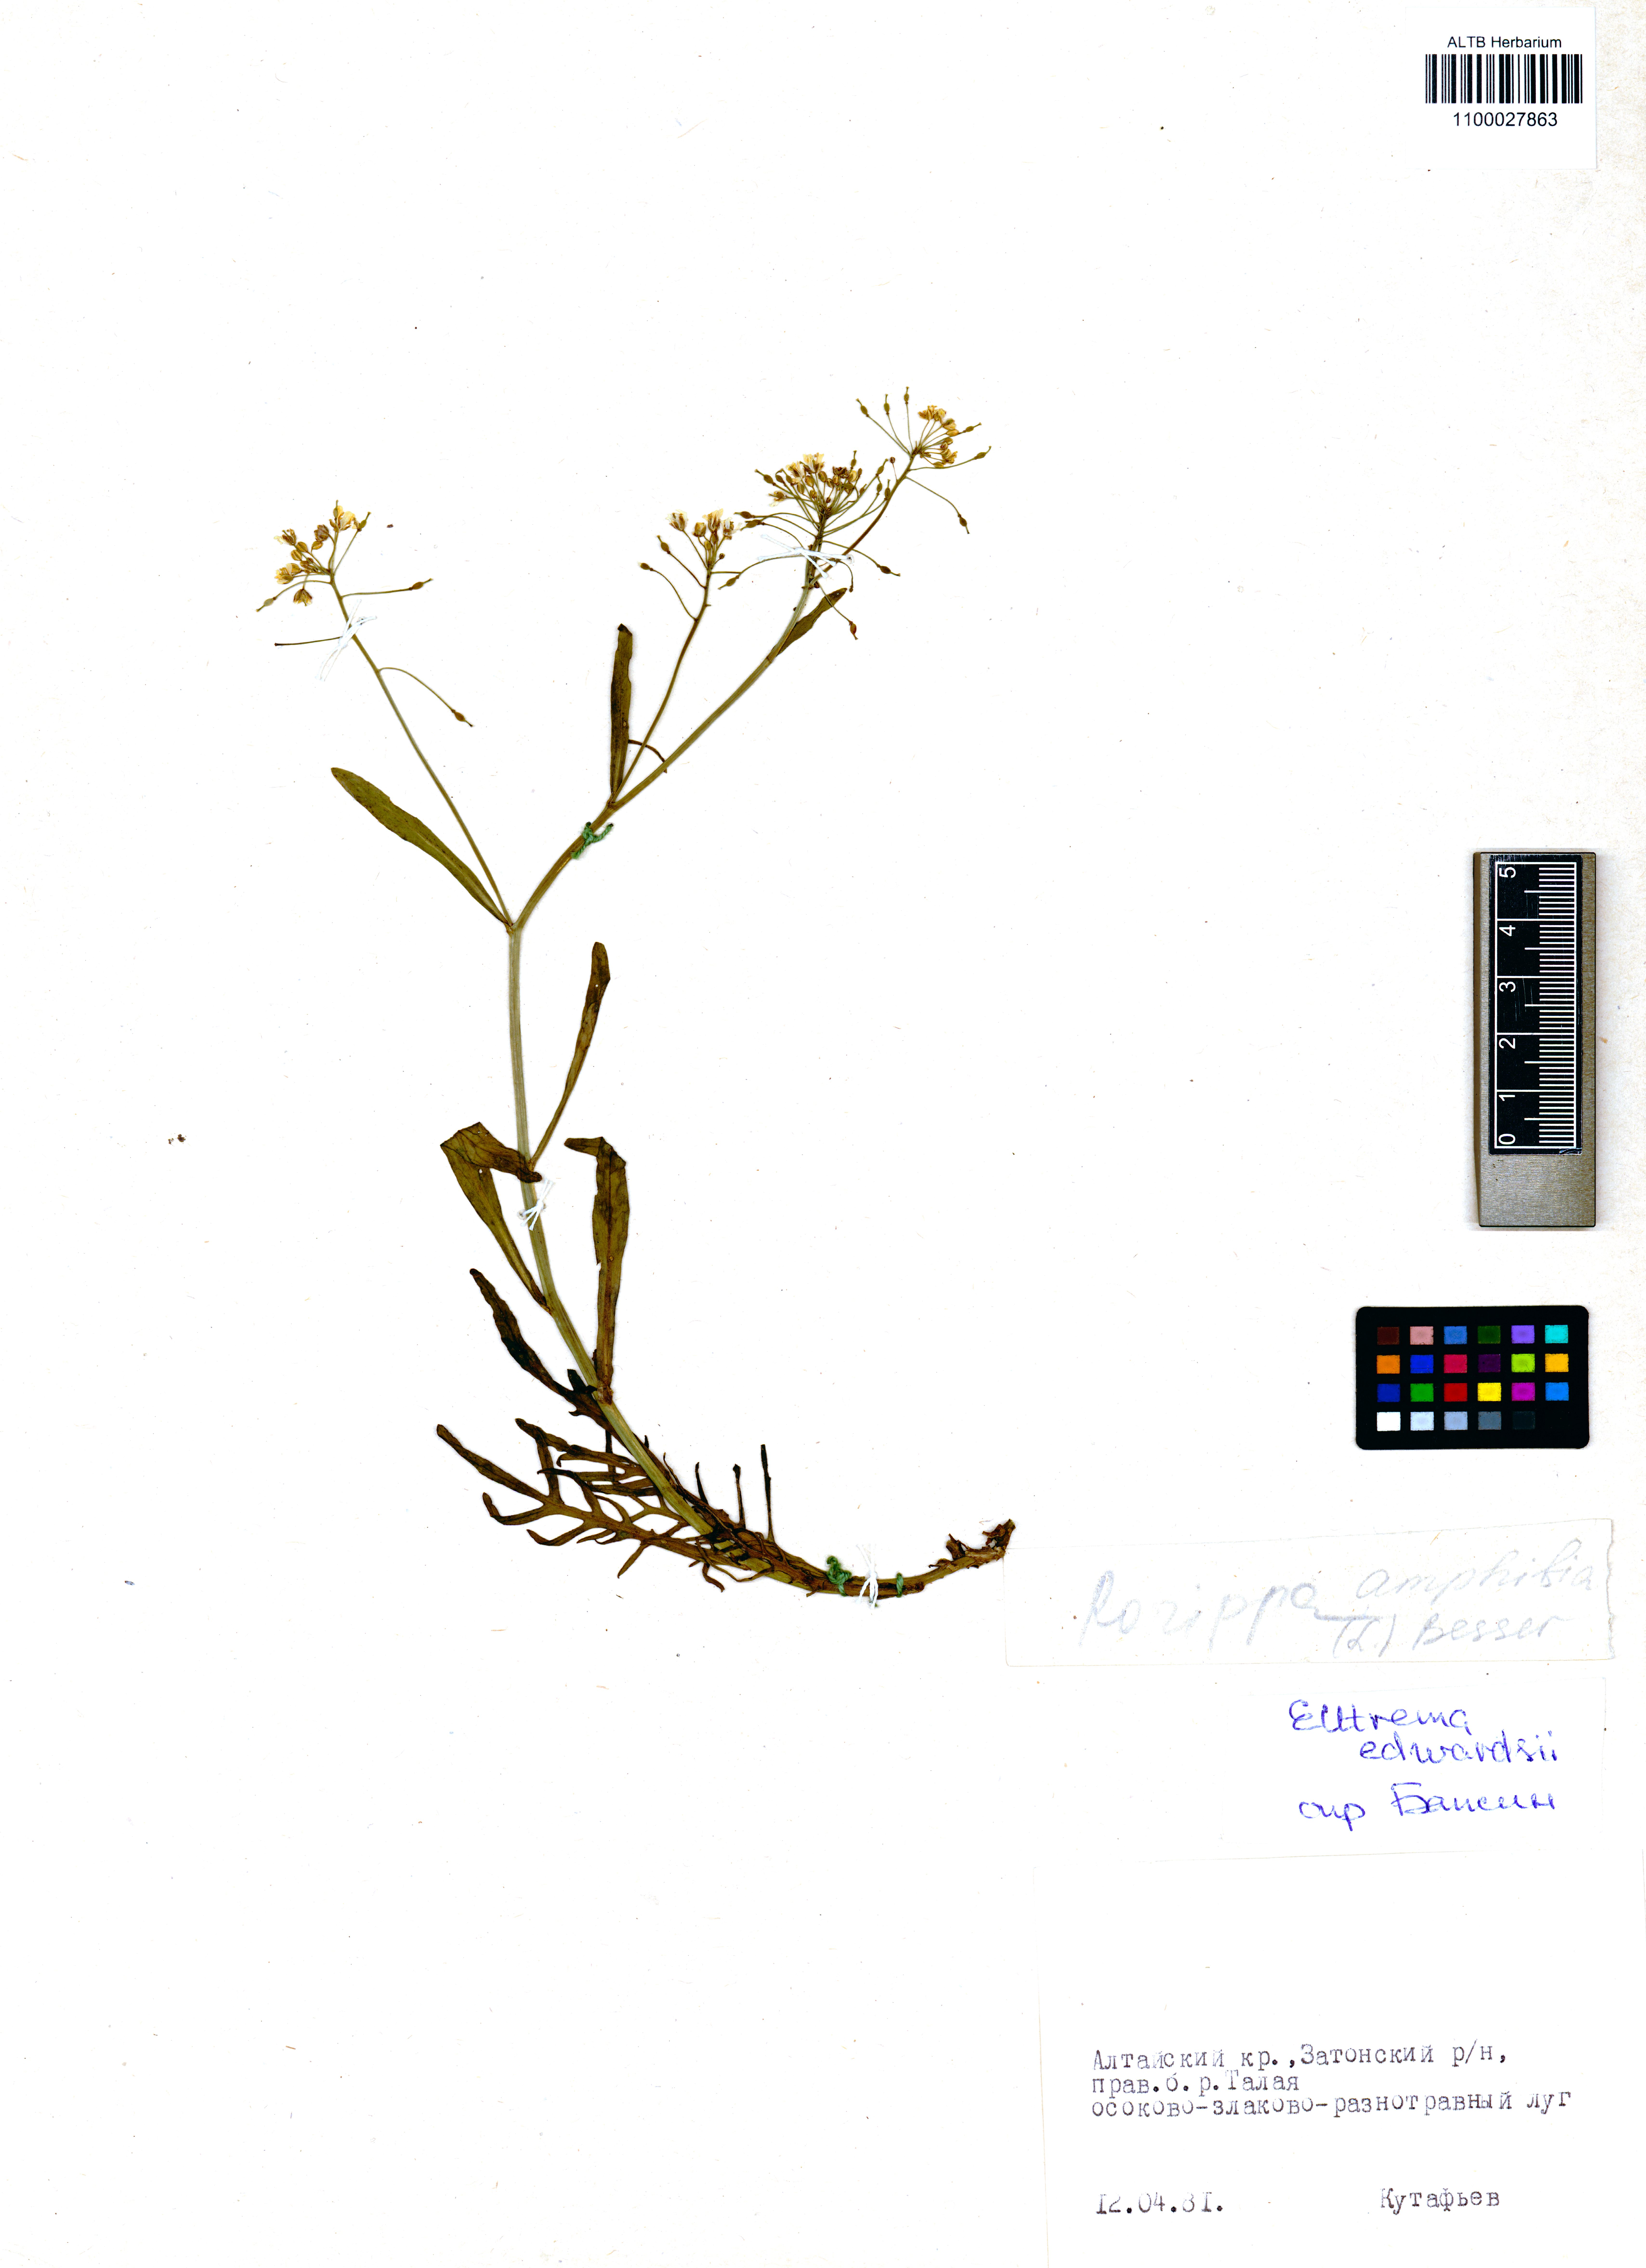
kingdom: Plantae
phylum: Tracheophyta
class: Magnoliopsida
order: Brassicales
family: Brassicaceae
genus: Rorippa
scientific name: Rorippa amphibia
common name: Great yellow-cress
